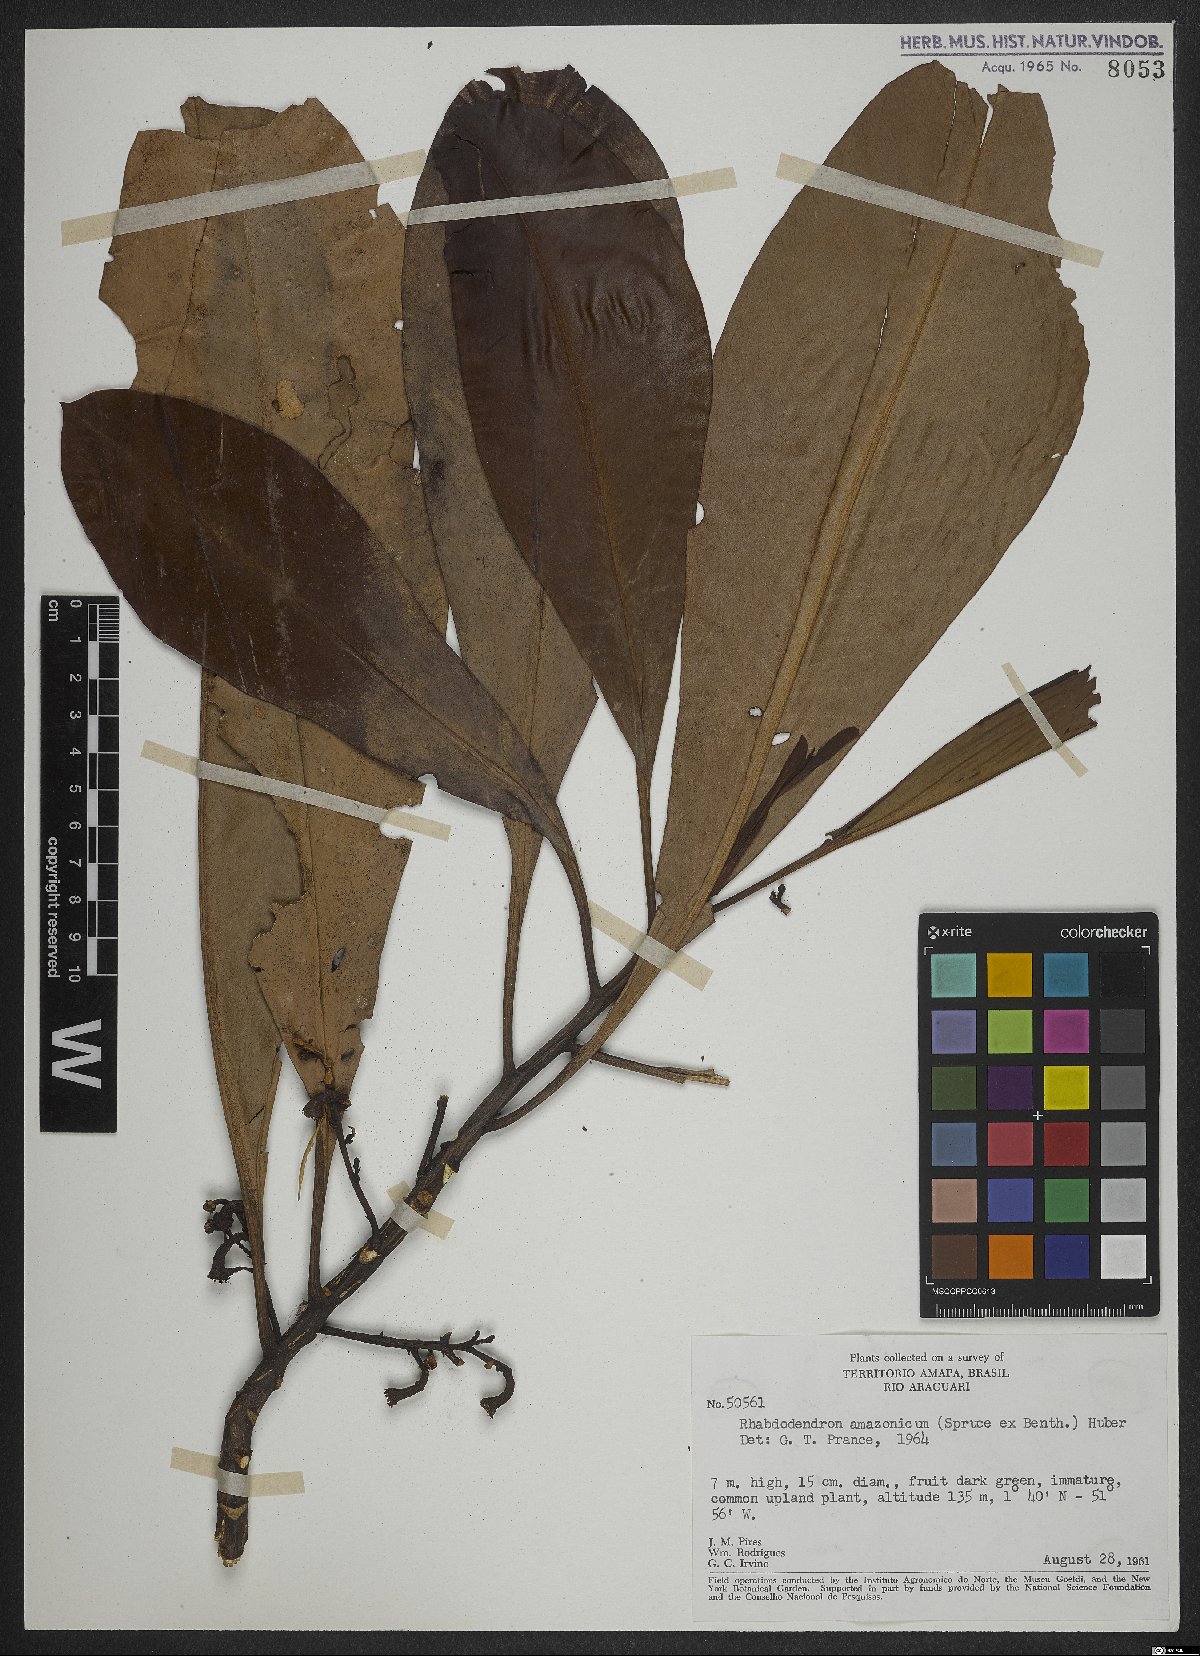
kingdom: Plantae
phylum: Tracheophyta
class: Magnoliopsida
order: Caryophyllales
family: Rhabdodendraceae
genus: Rhabdodendron
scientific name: Rhabdodendron amazonicum
